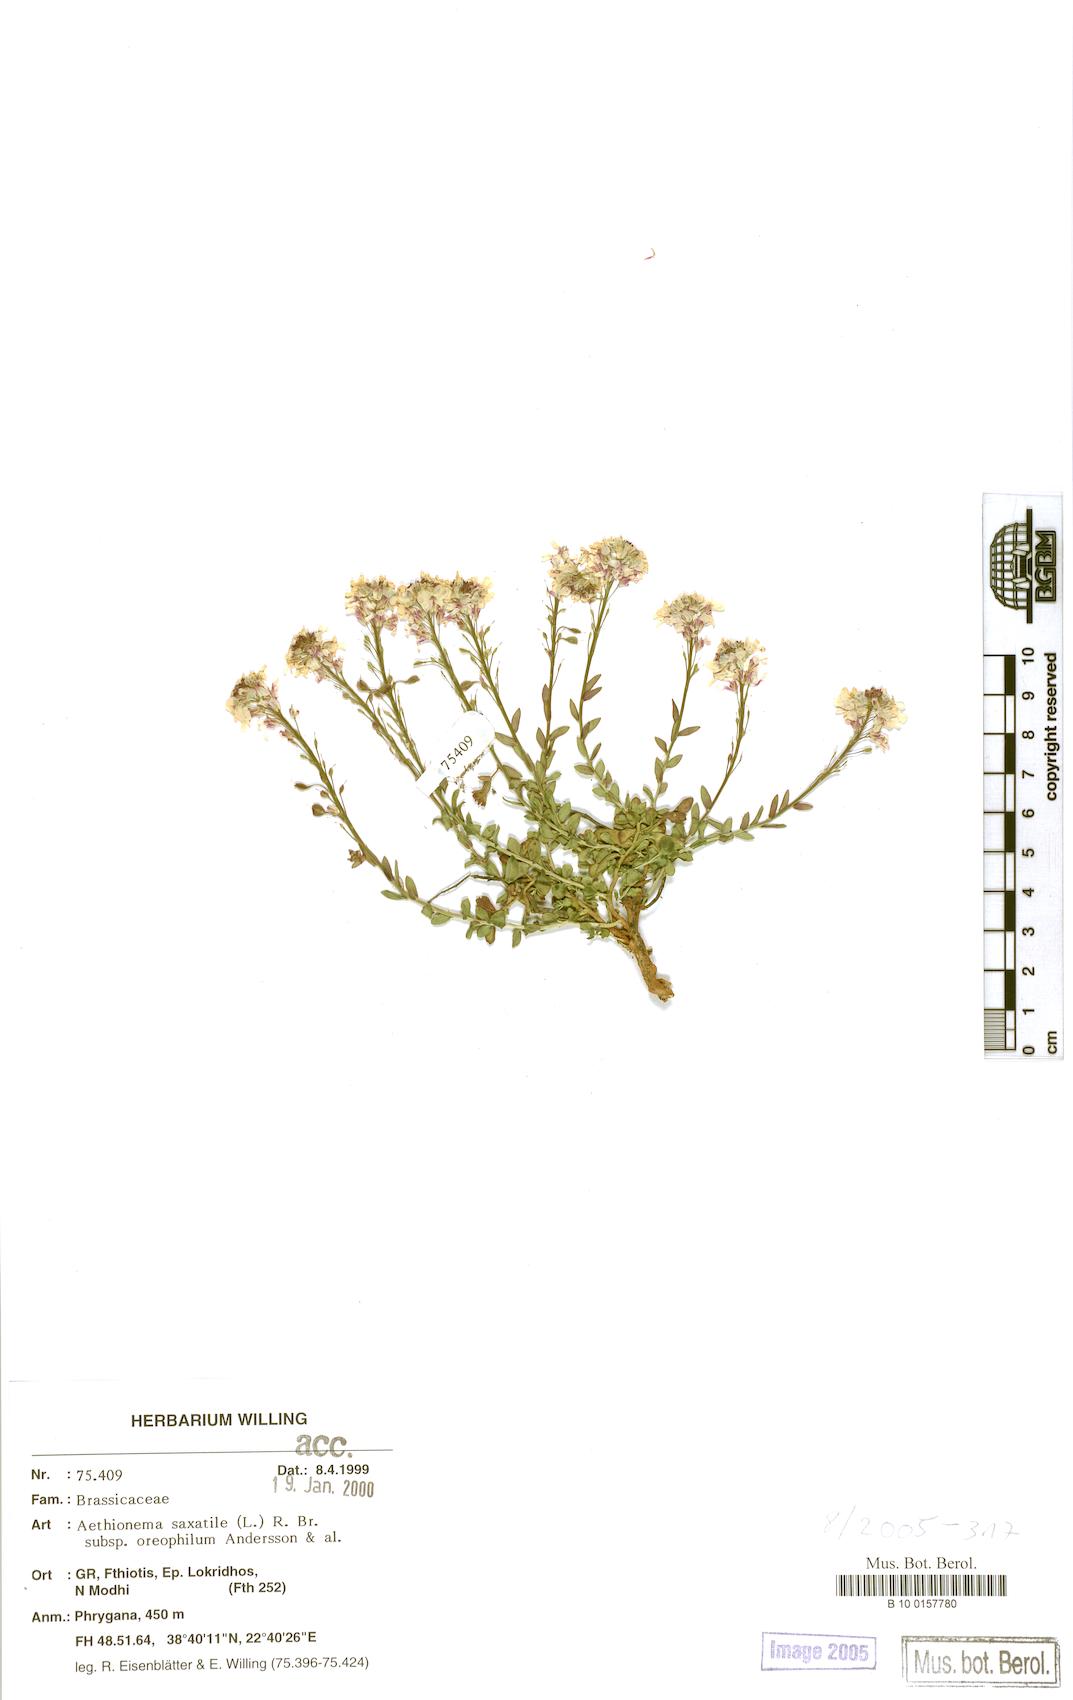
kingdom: Plantae
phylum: Tracheophyta
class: Magnoliopsida
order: Brassicales
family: Brassicaceae
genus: Aethionema
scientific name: Aethionema saxatile
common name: Burnt candytuft
